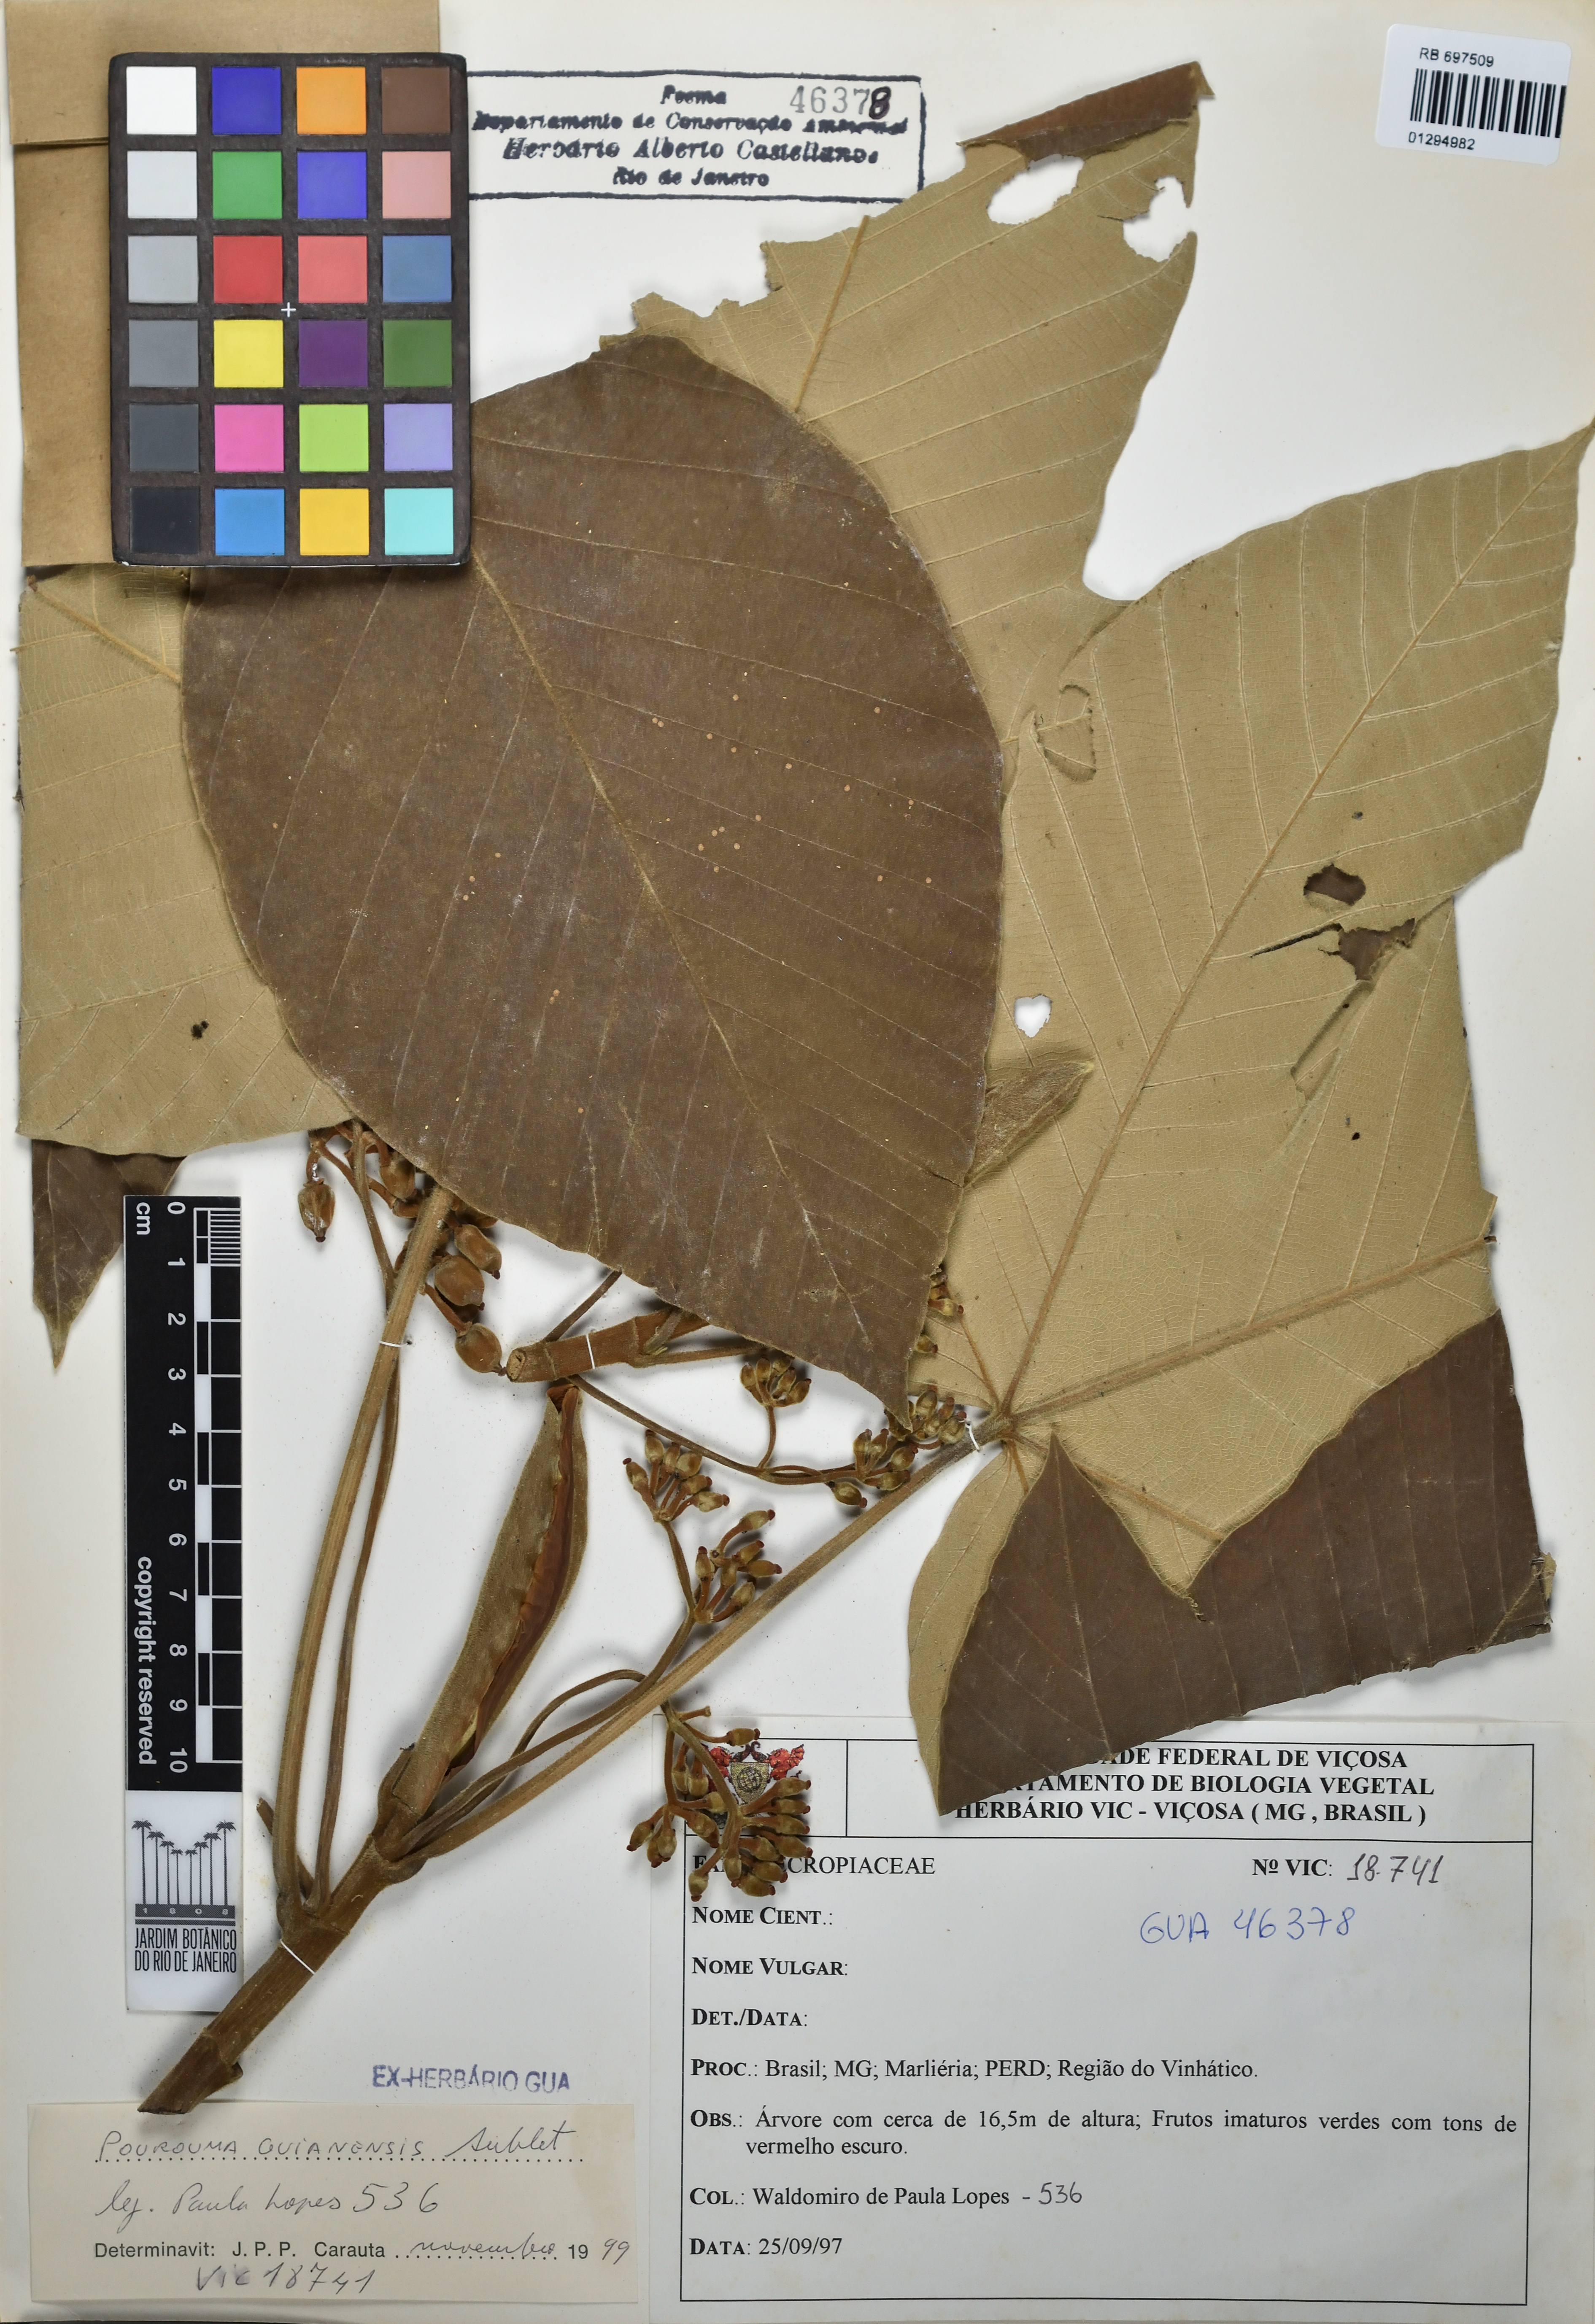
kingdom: Plantae
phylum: Tracheophyta
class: Magnoliopsida
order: Rosales
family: Urticaceae
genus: Pourouma
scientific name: Pourouma guianensis
